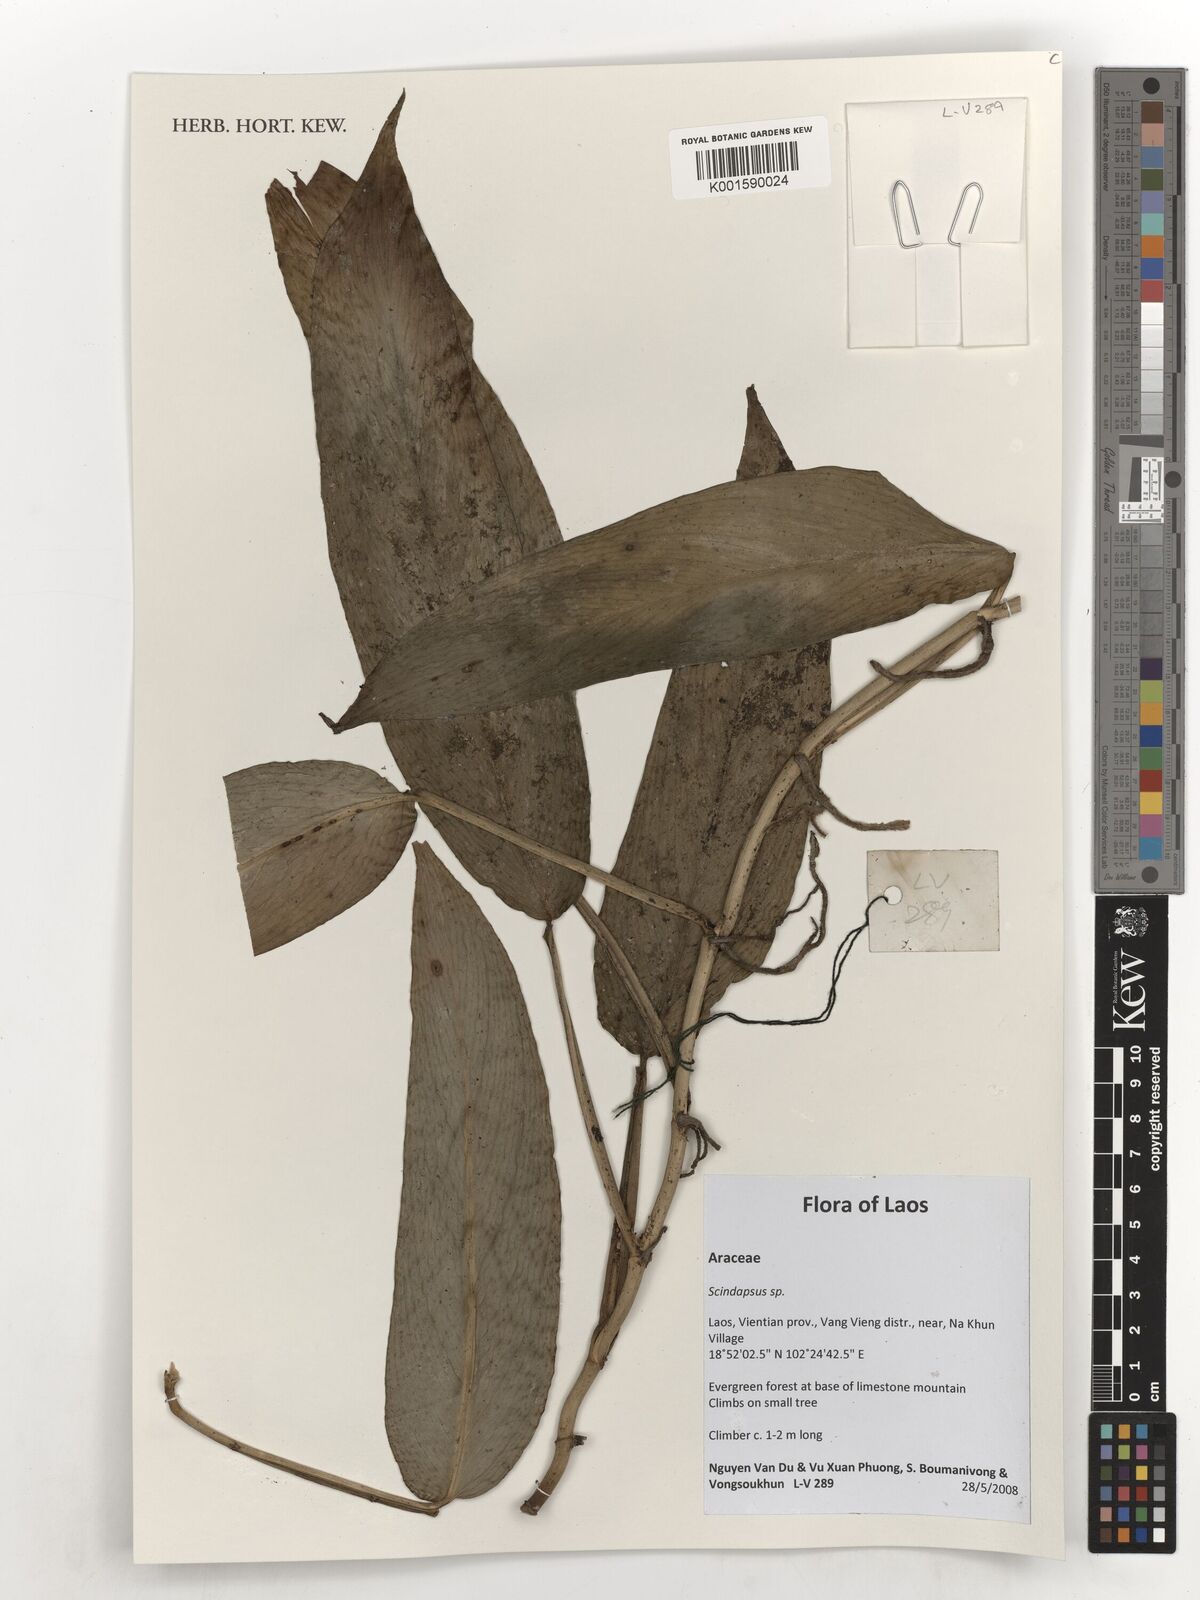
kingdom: Plantae
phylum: Tracheophyta
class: Liliopsida
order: Alismatales
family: Araceae
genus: Scindapsus
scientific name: Scindapsus
